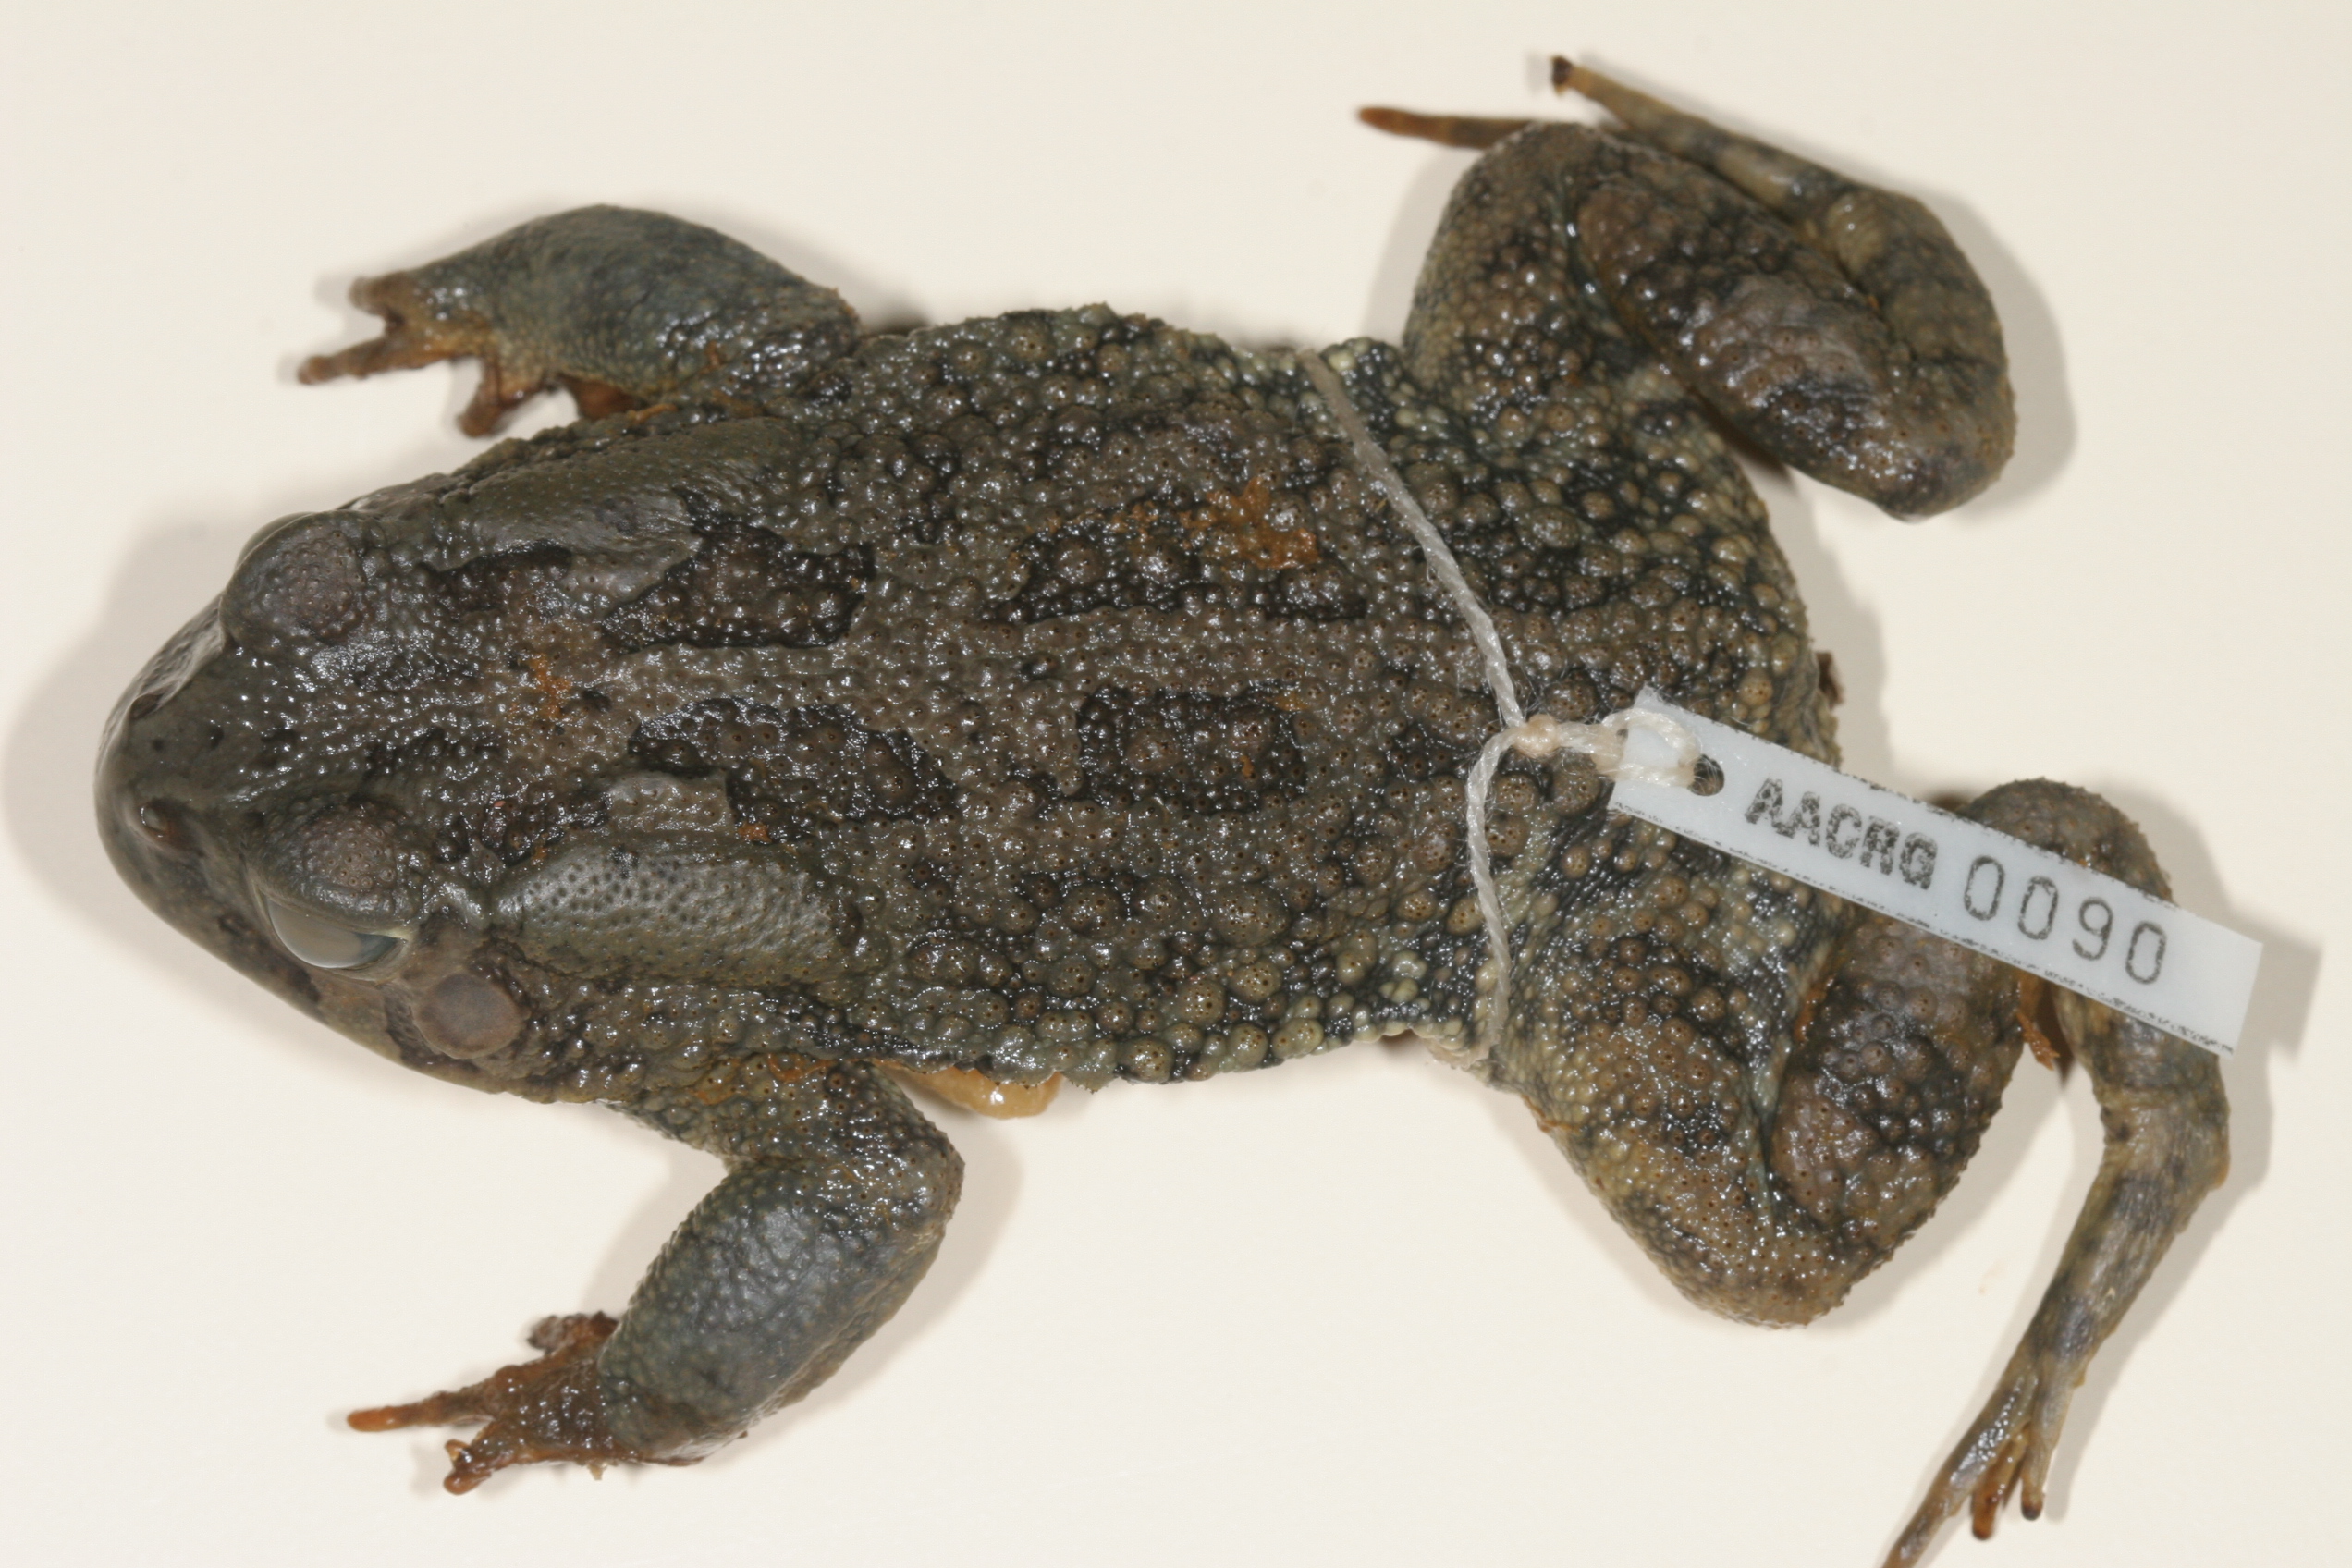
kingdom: Animalia
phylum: Chordata
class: Amphibia
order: Anura
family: Bufonidae
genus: Sclerophrys
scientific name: Sclerophrys poweri
